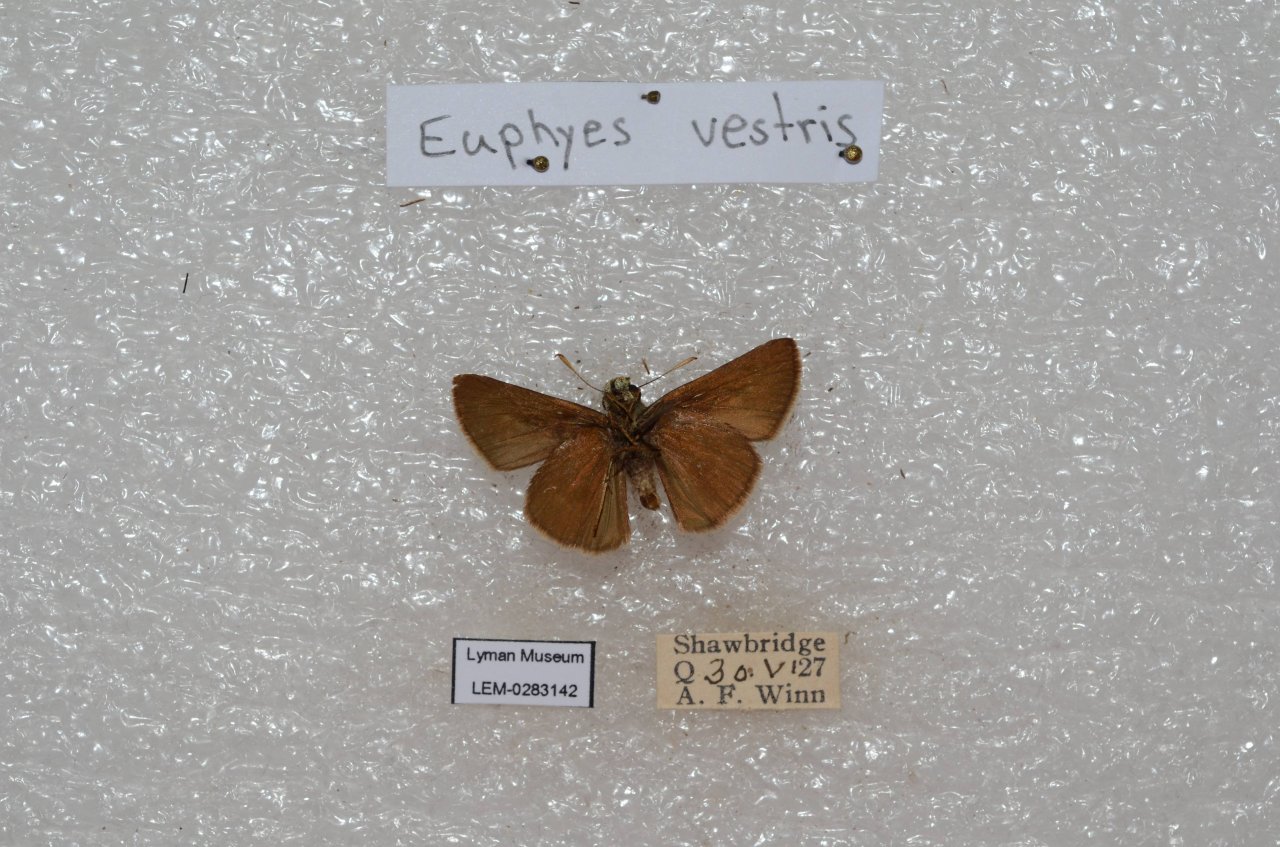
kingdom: Animalia
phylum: Arthropoda
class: Insecta
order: Lepidoptera
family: Hesperiidae
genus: Euphyes
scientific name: Euphyes vestris
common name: Dun Skipper
